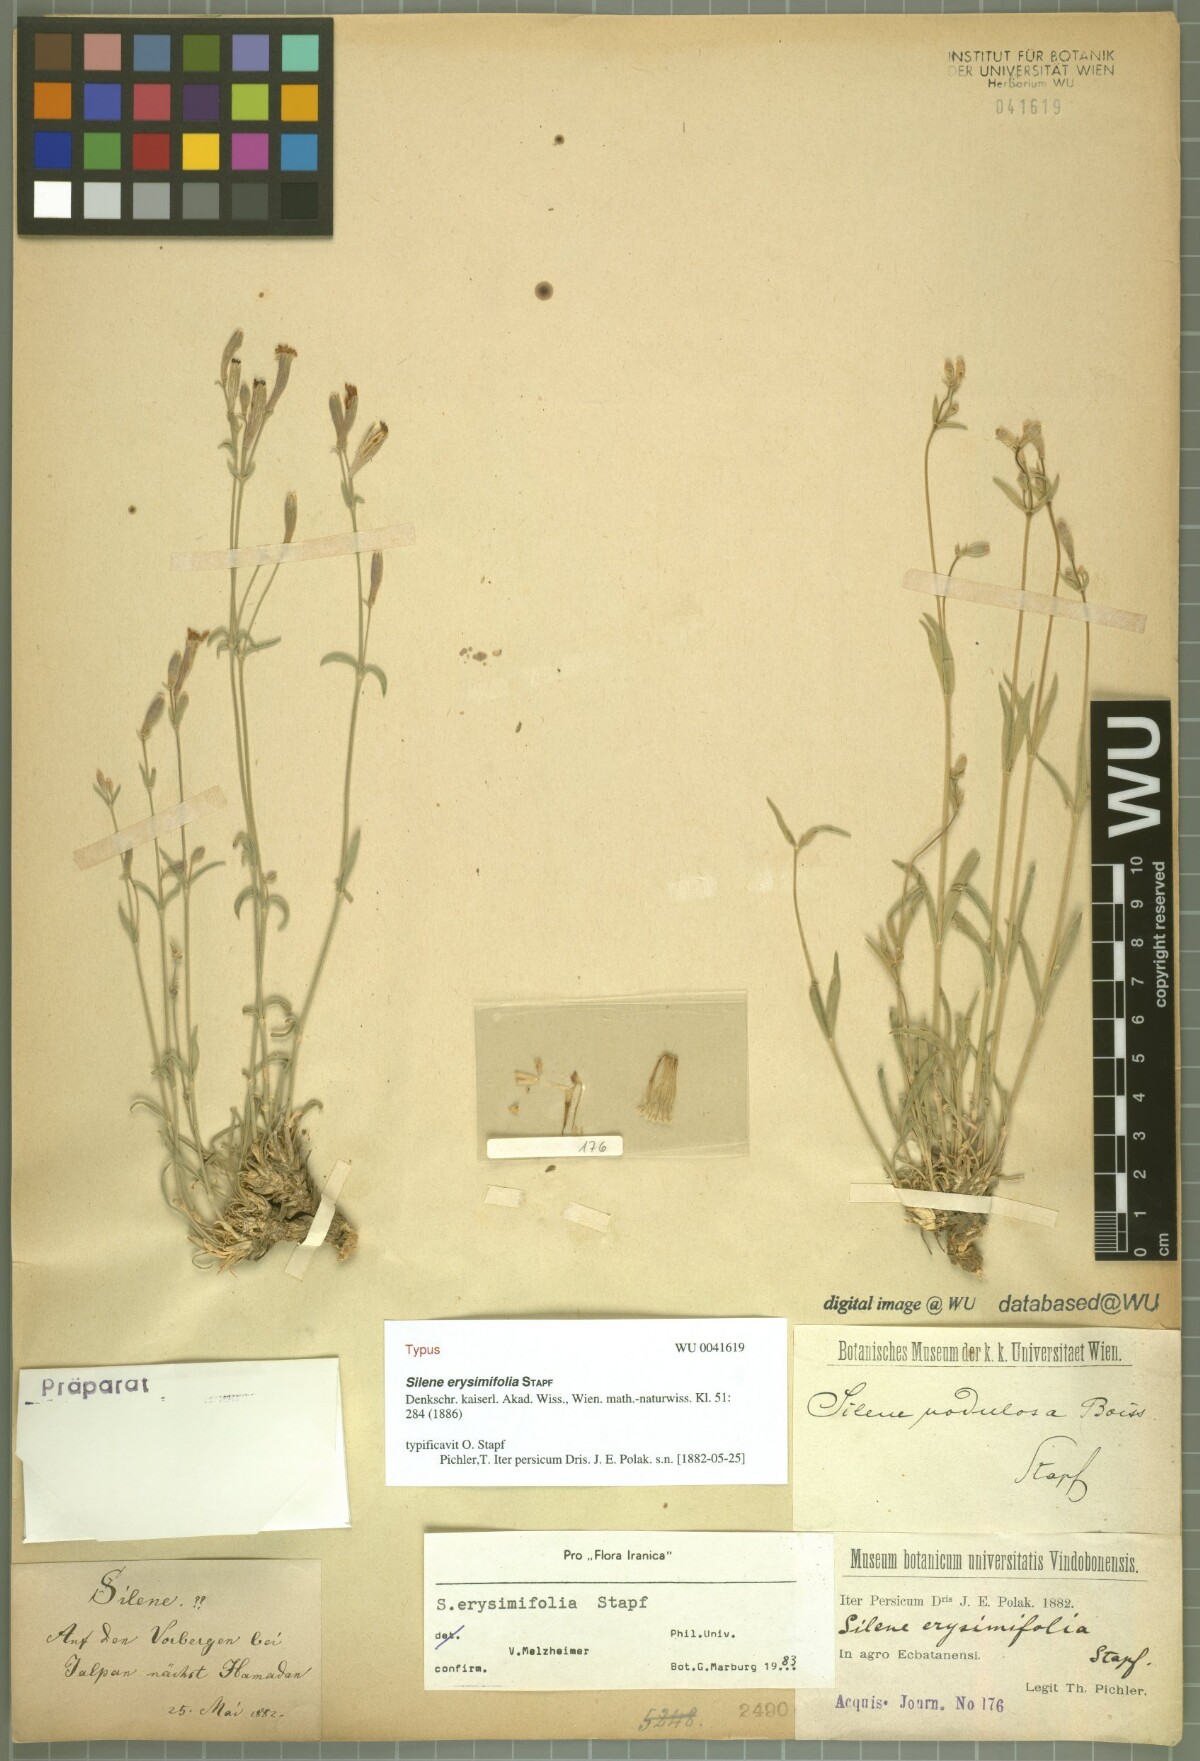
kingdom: Plantae
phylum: Tracheophyta
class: Magnoliopsida
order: Caryophyllales
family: Caryophyllaceae
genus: Silene
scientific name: Silene erysimifolia
